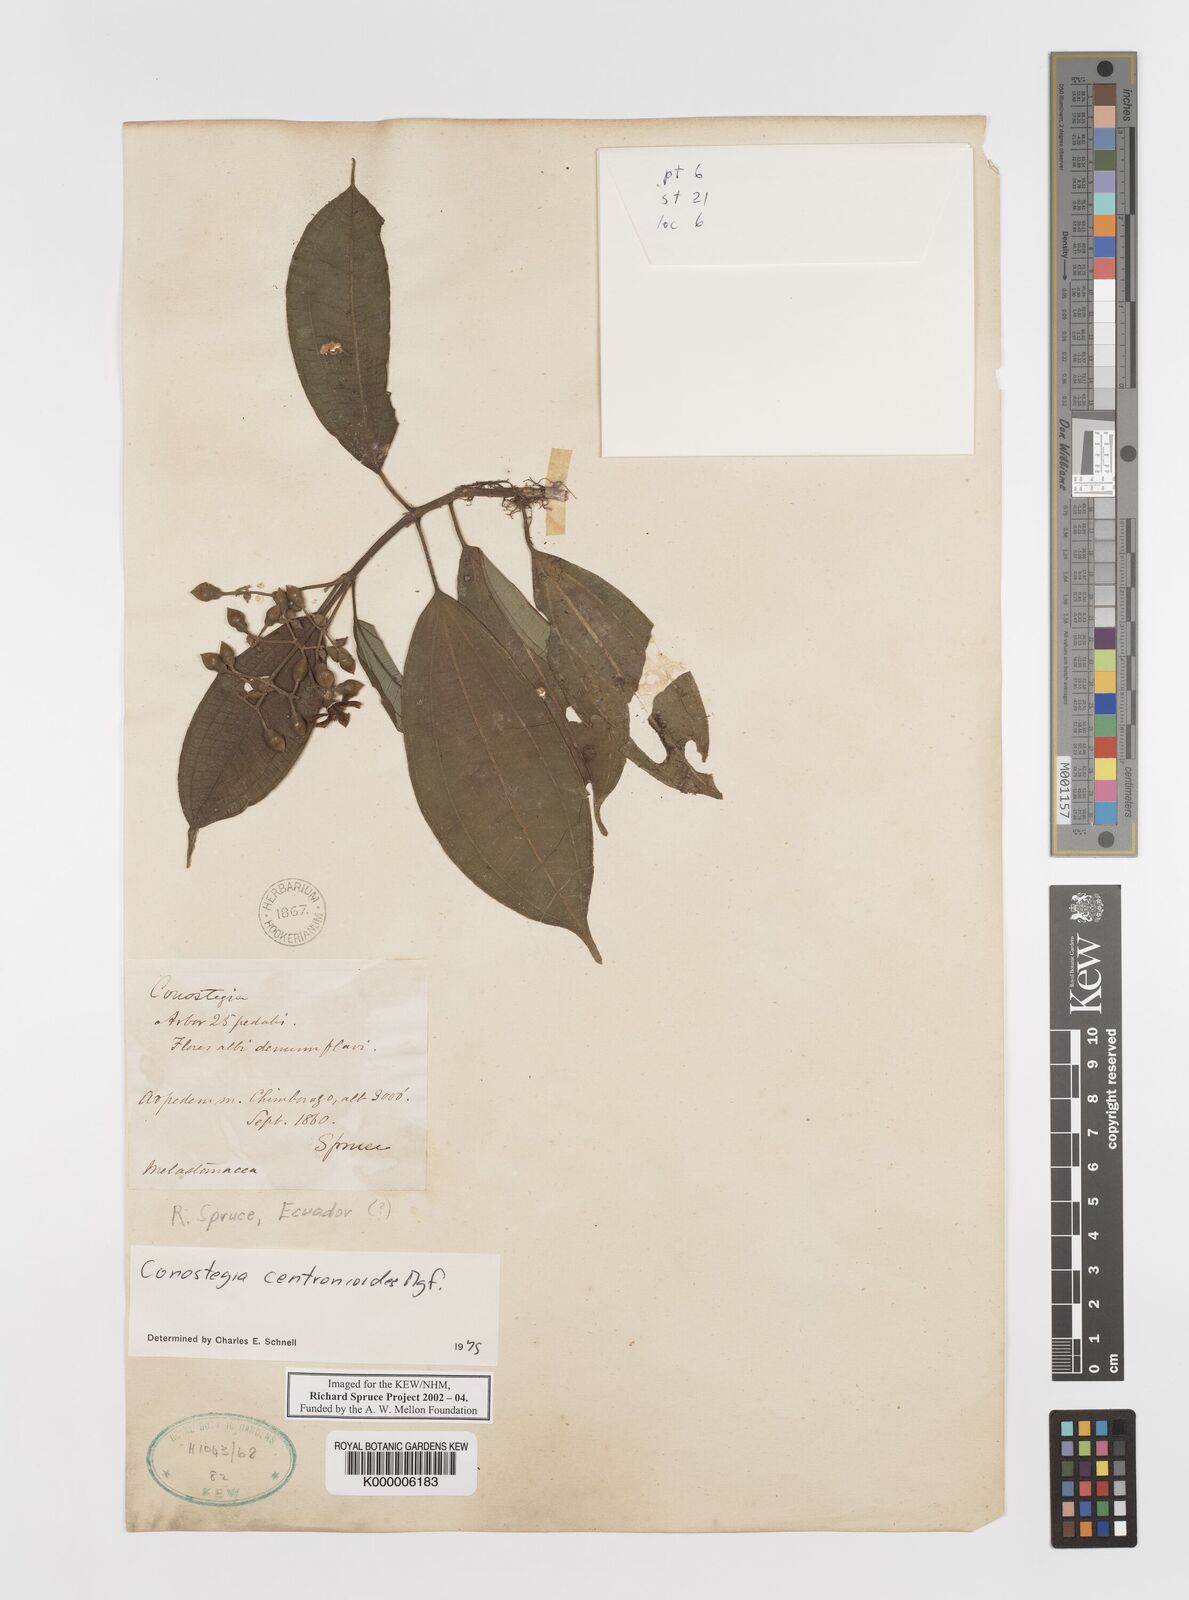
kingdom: Plantae
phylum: Tracheophyta
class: Magnoliopsida
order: Myrtales
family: Melastomataceae
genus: Miconia
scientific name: Miconia conocentronioides
